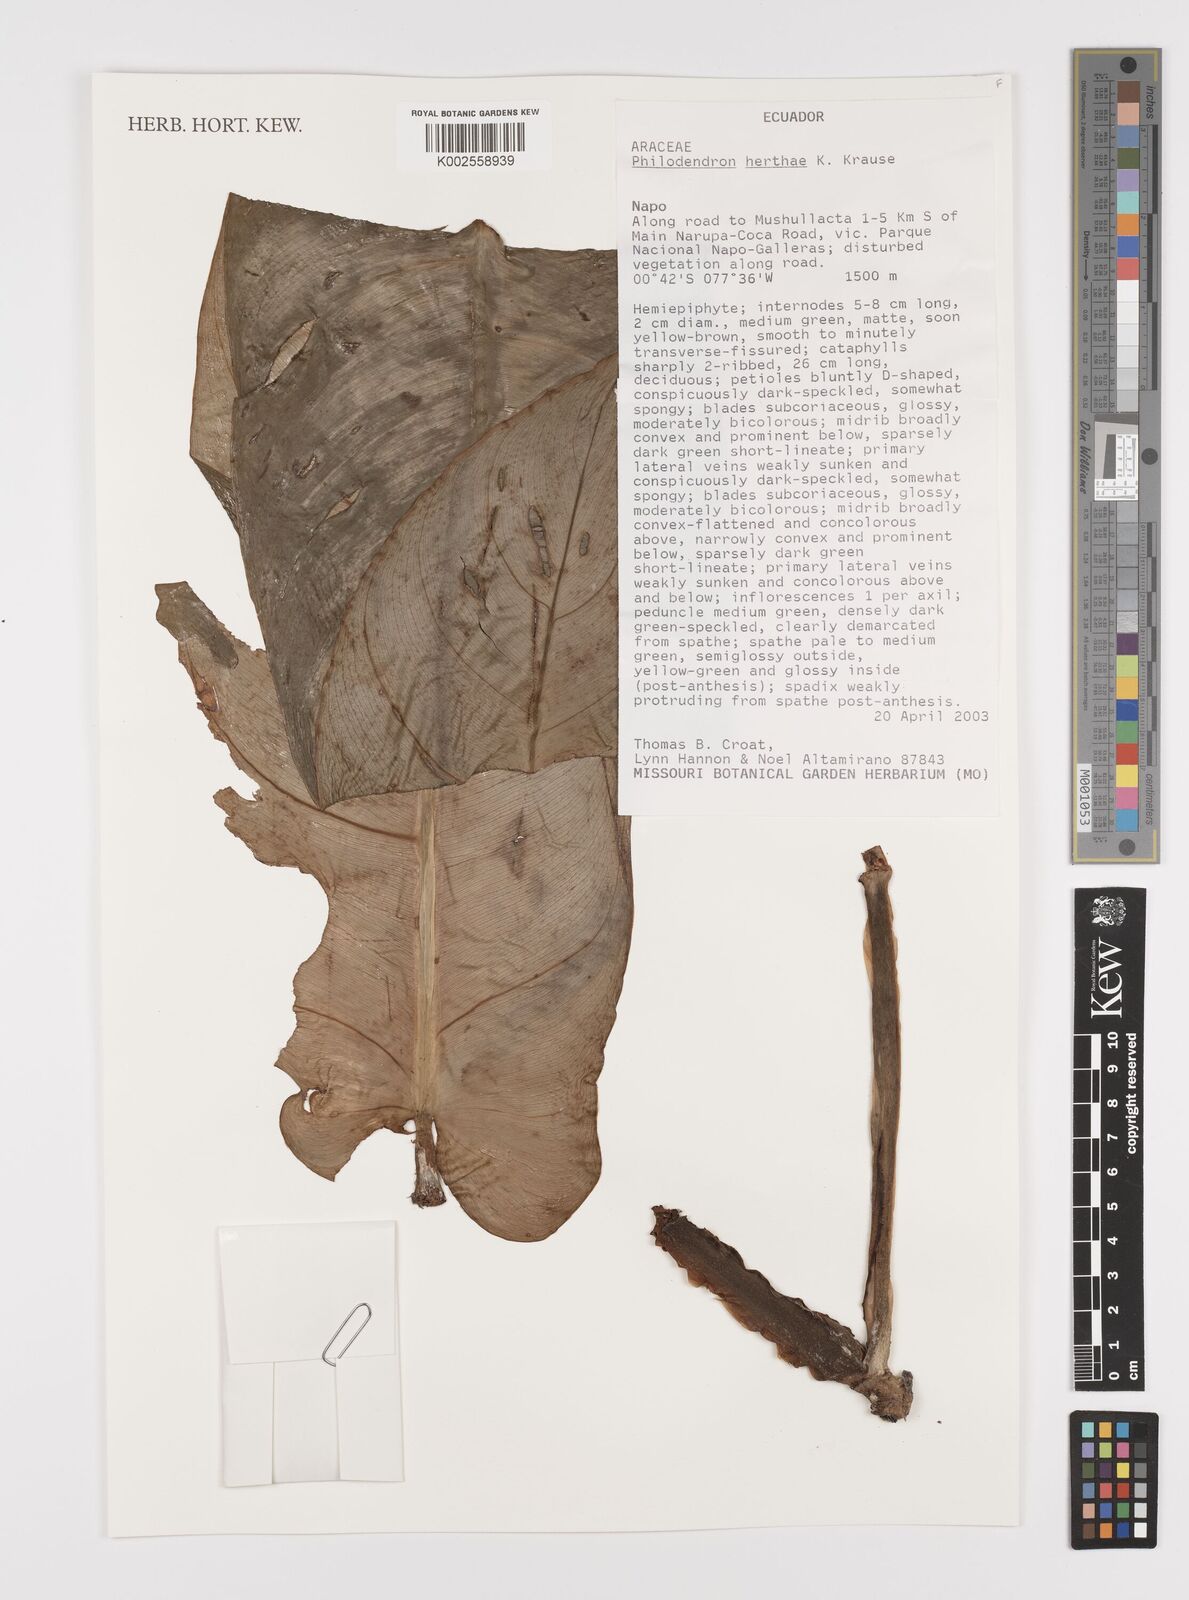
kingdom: Plantae
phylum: Tracheophyta
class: Liliopsida
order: Alismatales
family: Araceae
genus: Philodendron
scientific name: Philodendron herthae
